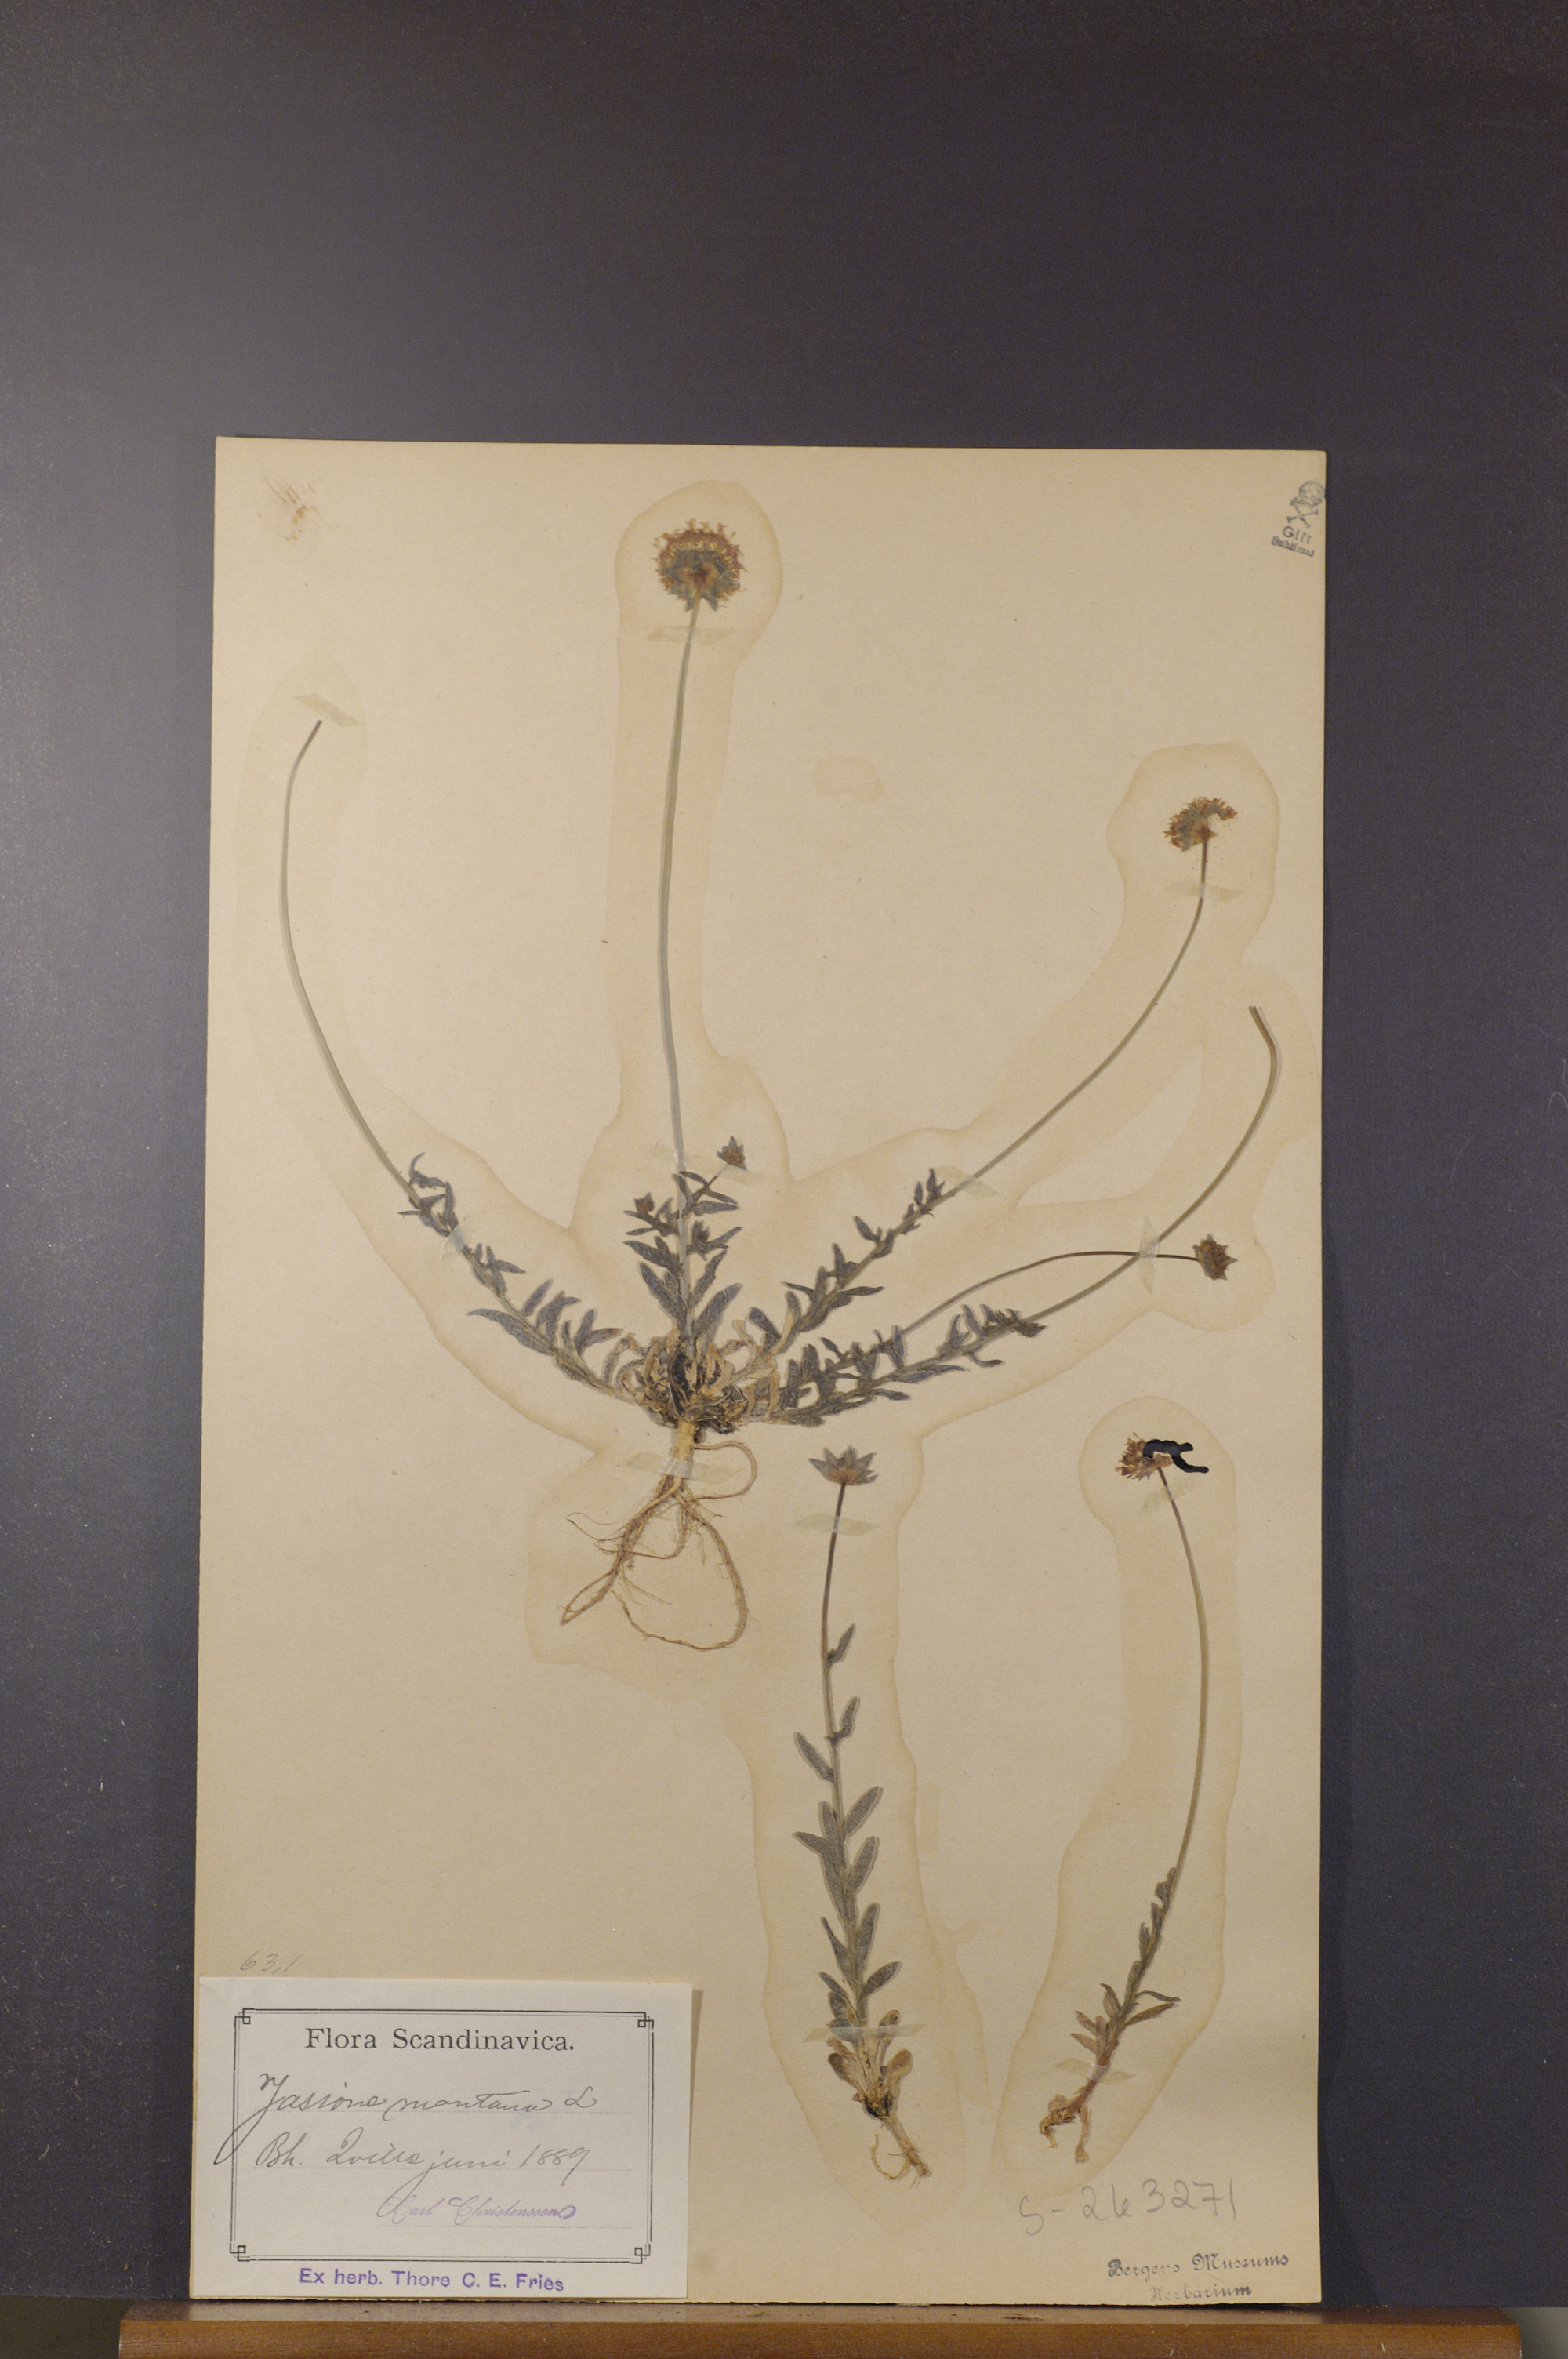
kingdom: Plantae
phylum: Tracheophyta
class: Magnoliopsida
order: Asterales
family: Campanulaceae
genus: Jasione
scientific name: Jasione montana
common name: Sheep's-bit
